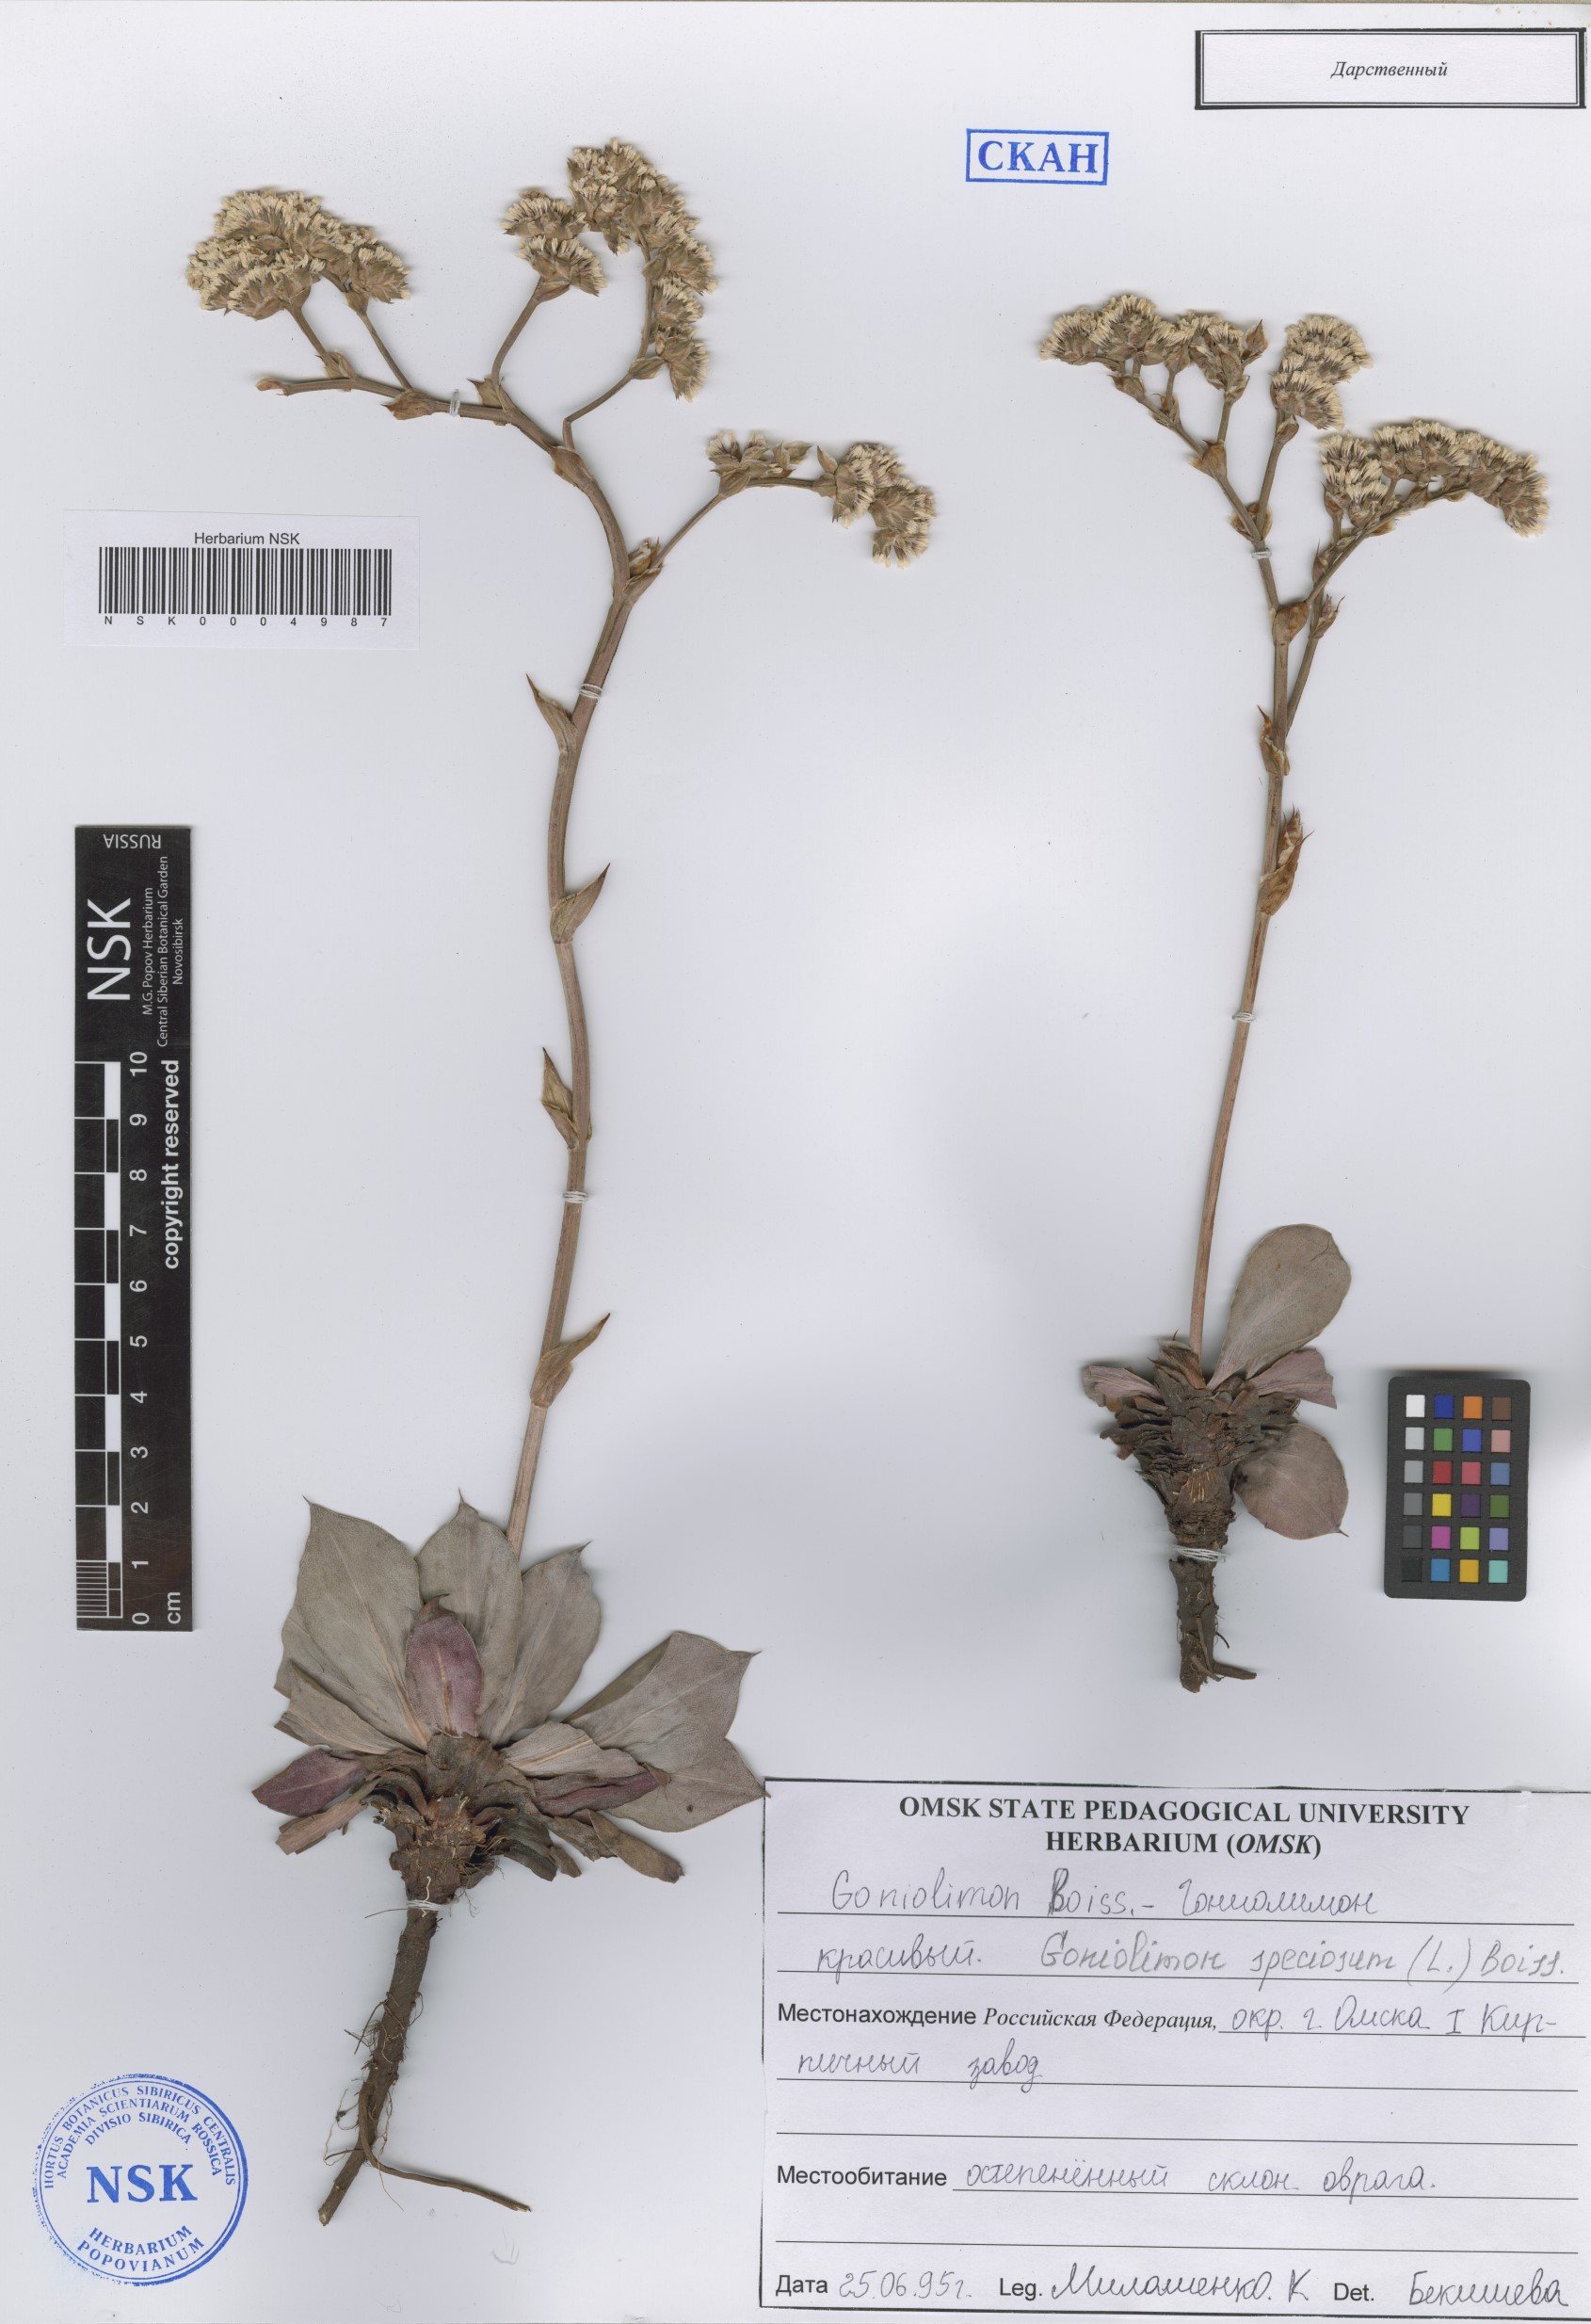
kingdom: Plantae
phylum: Tracheophyta
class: Magnoliopsida
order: Caryophyllales
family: Plumbaginaceae
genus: Goniolimon
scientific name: Goniolimon speciosum
